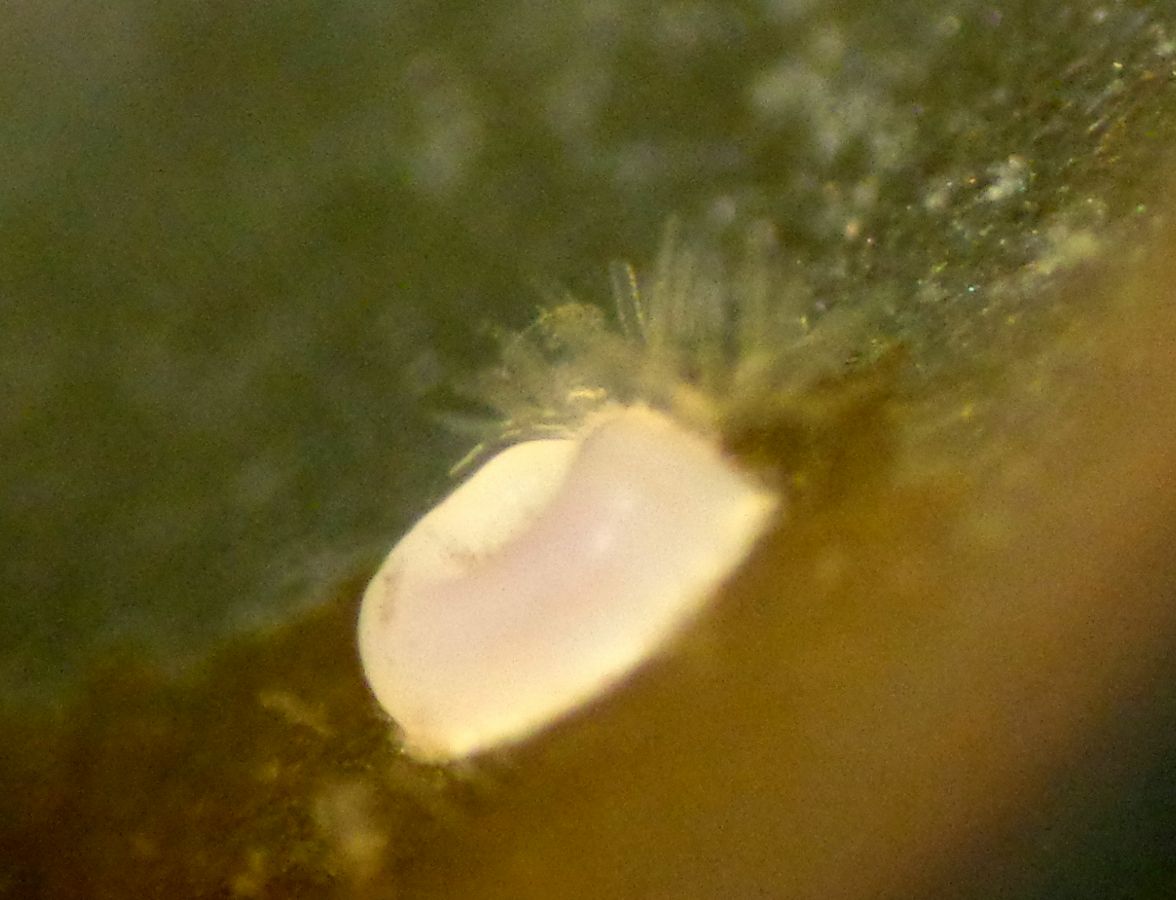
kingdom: Animalia
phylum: Annelida
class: Polychaeta
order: Sabellida
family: Serpulidae
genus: Circeis
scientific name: Circeis armoricana
